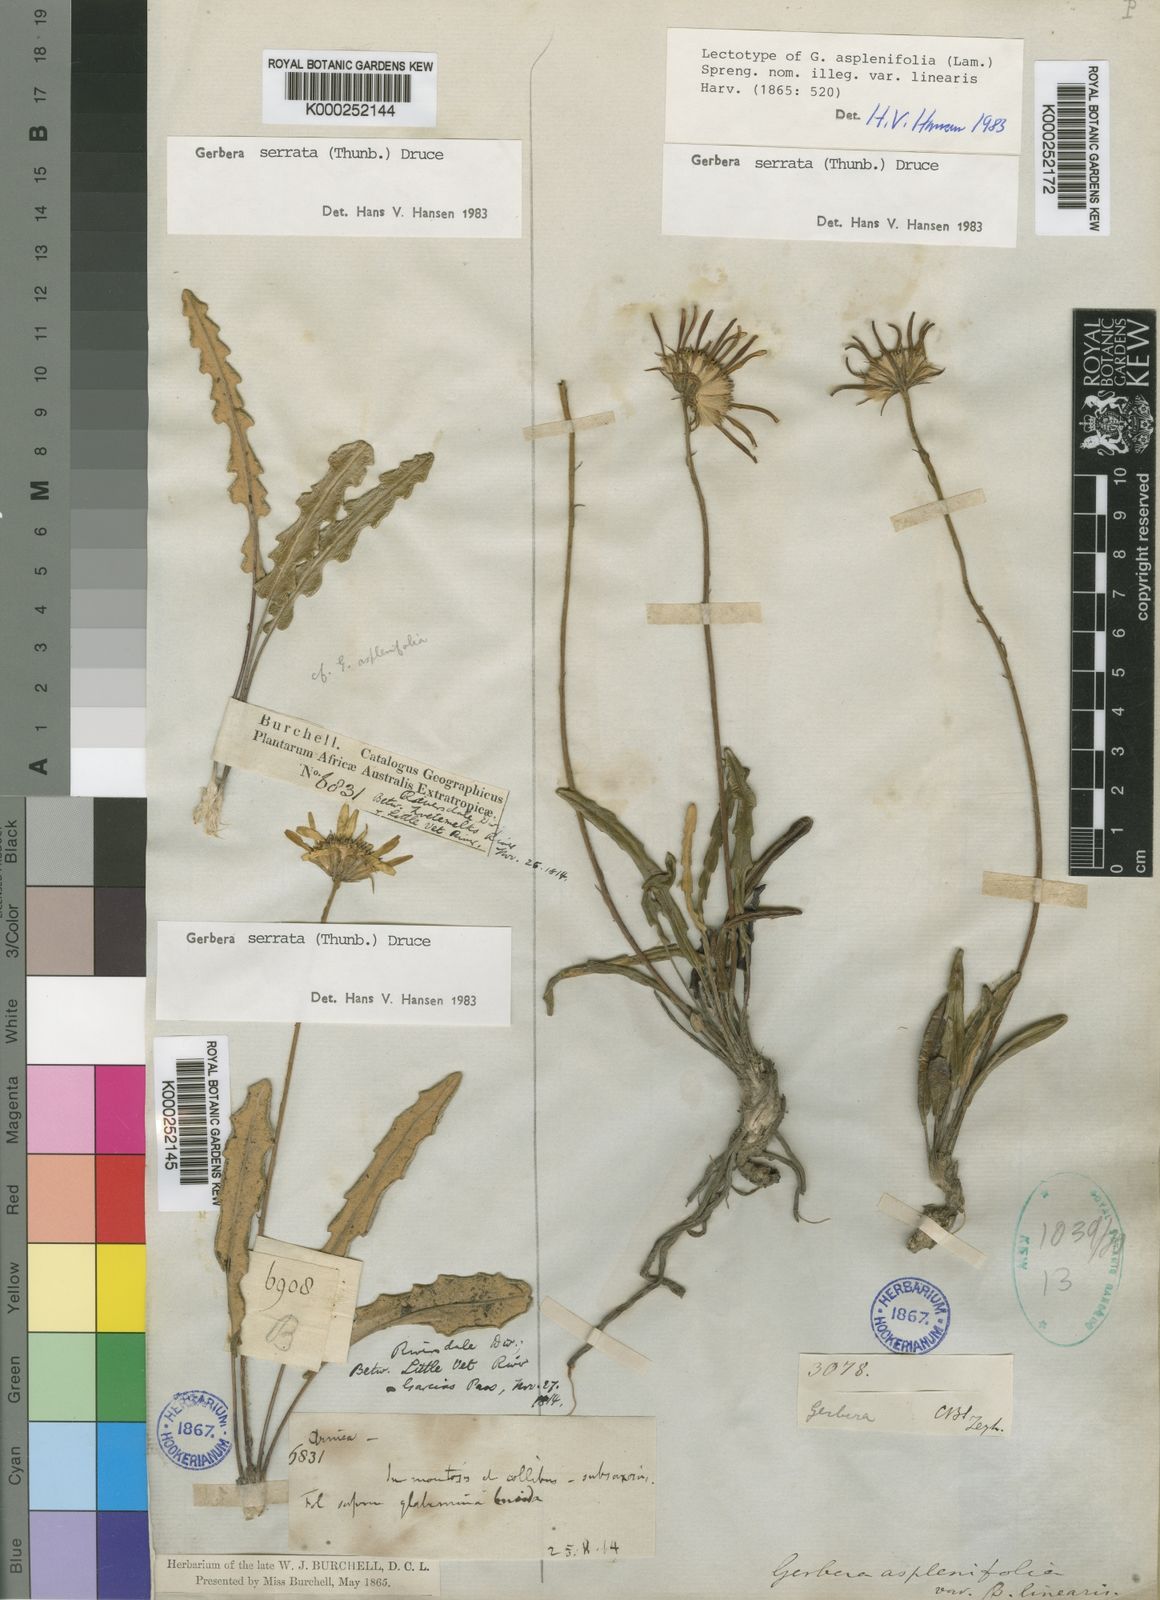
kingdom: Plantae
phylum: Tracheophyta
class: Magnoliopsida
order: Asterales
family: Asteraceae
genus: Gerbera
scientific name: Gerbera serrata
